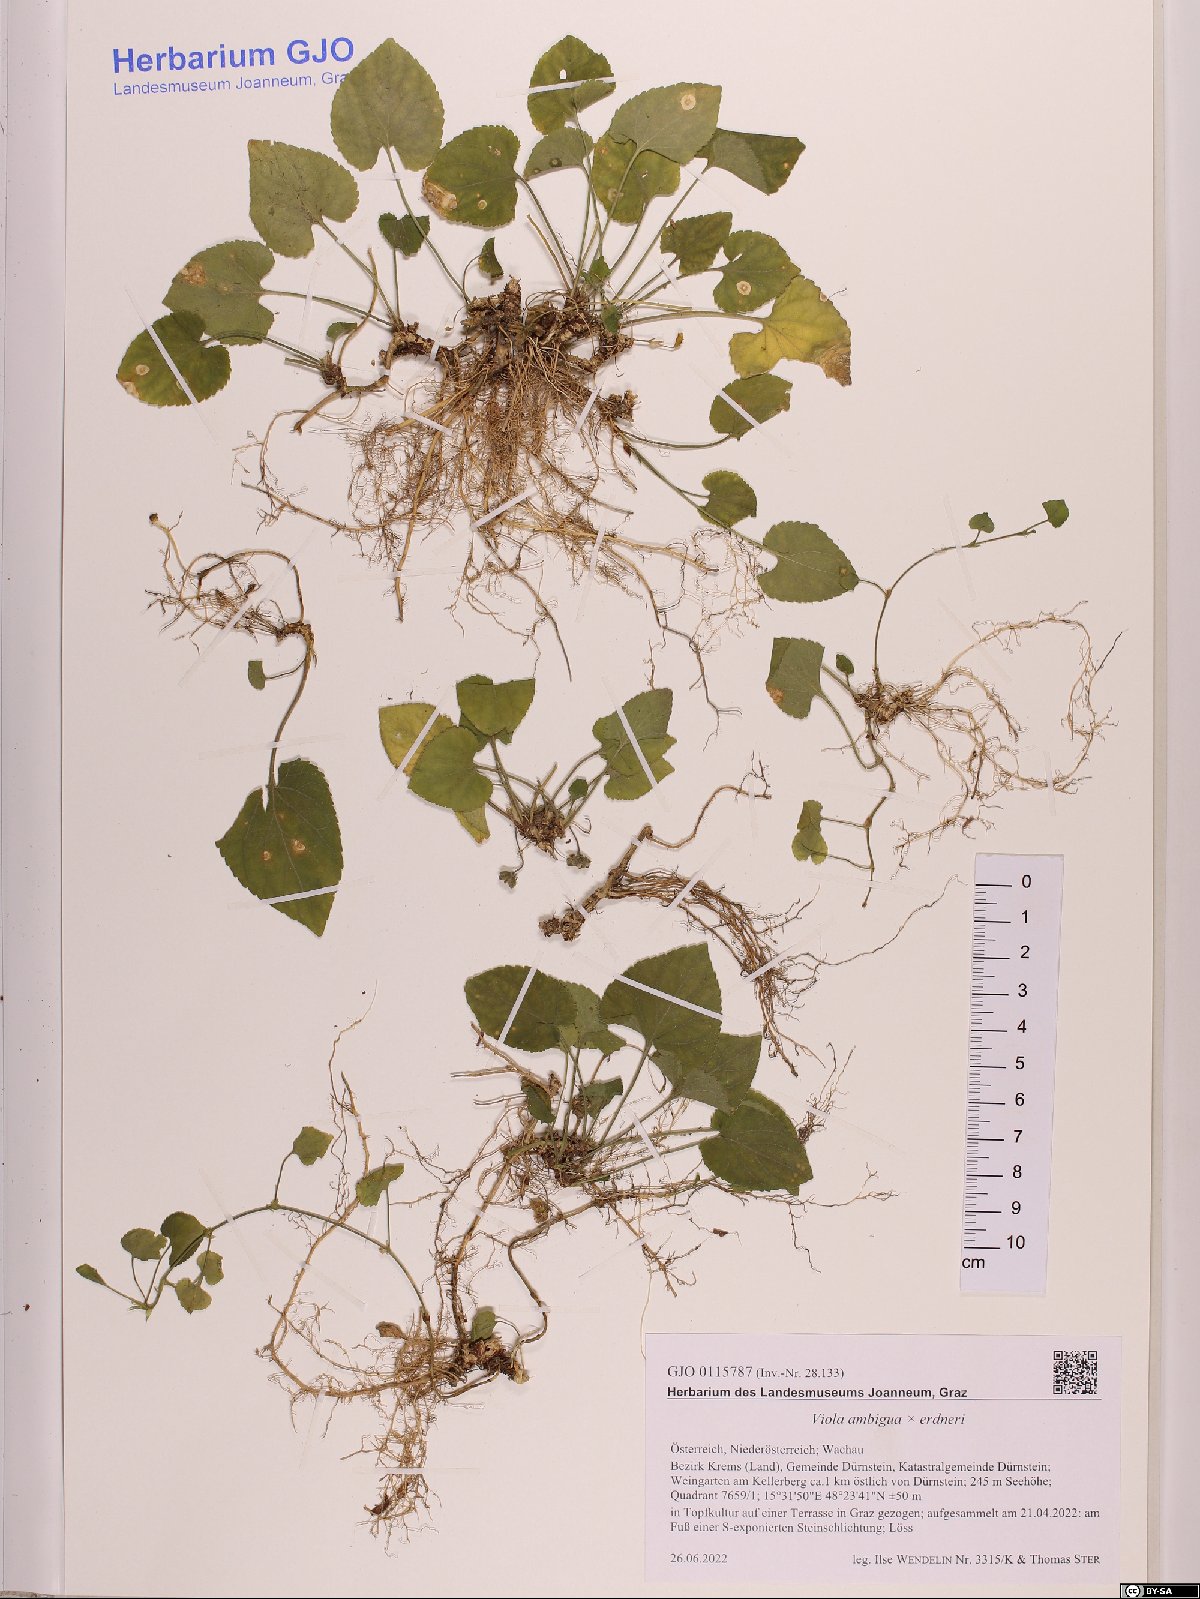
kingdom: Plantae
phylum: Tracheophyta
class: Magnoliopsida
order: Malpighiales
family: Violaceae
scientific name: Violaceae
